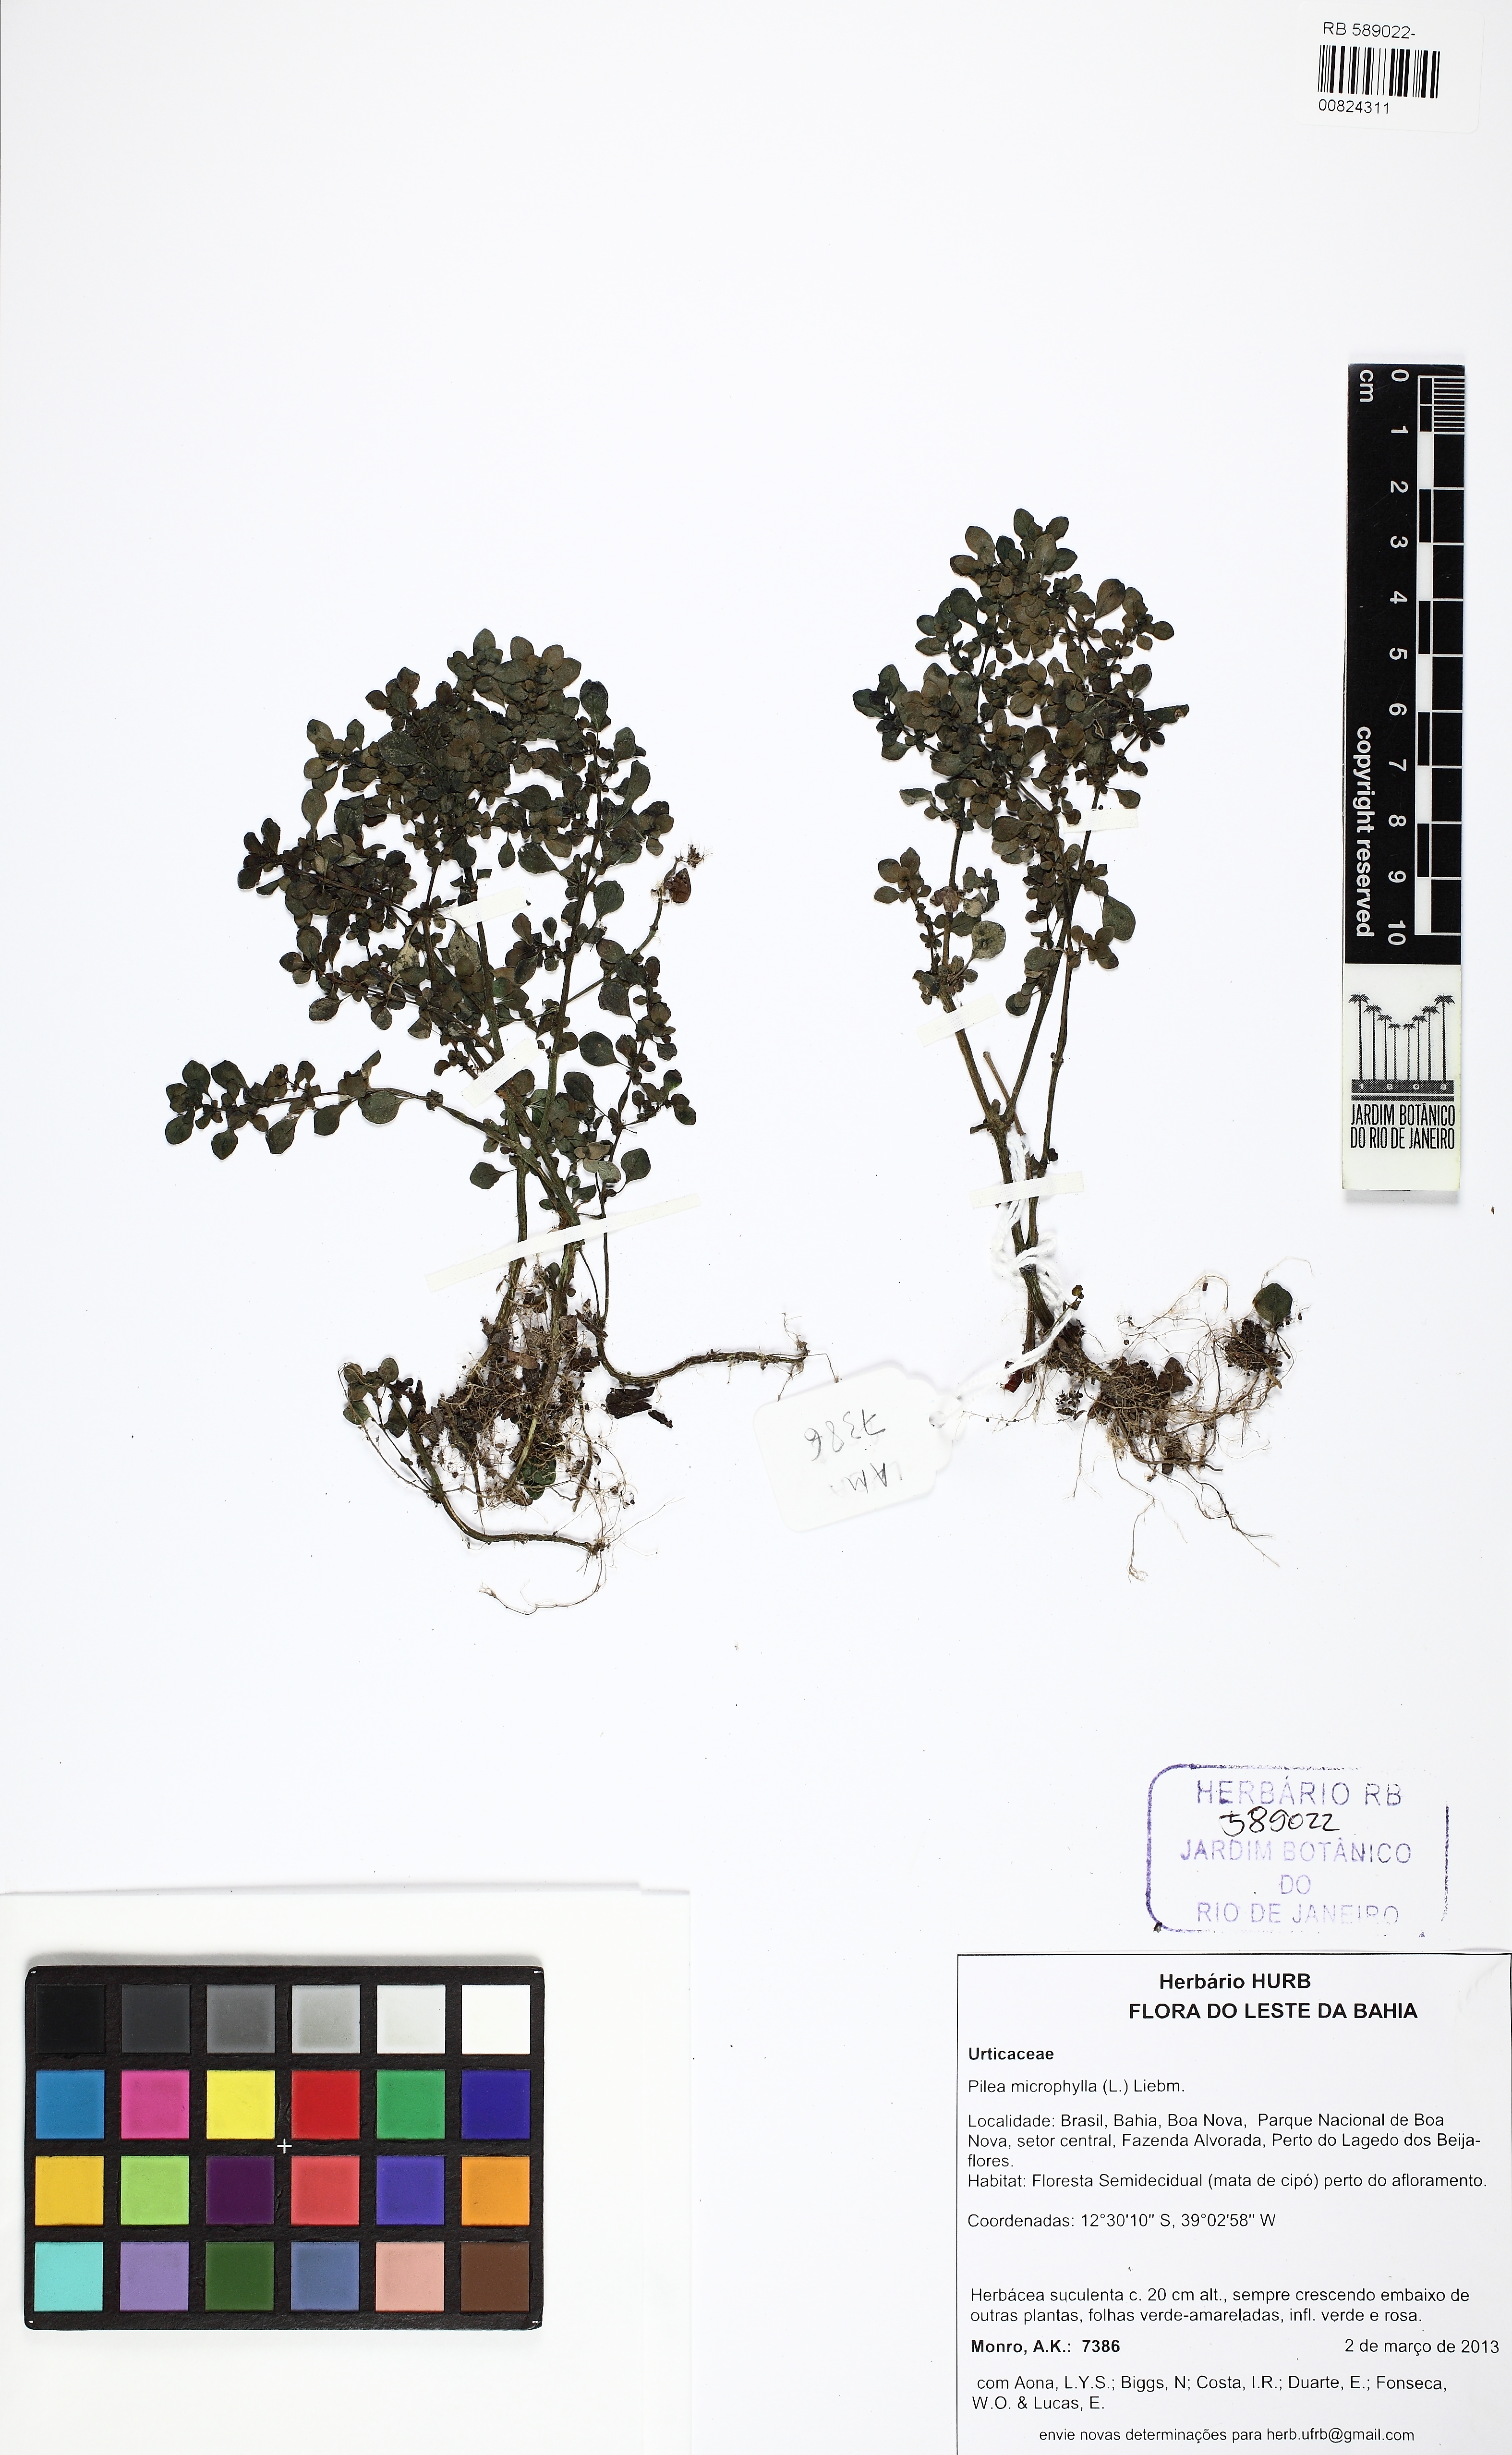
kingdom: Plantae
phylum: Tracheophyta
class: Magnoliopsida
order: Rosales
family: Urticaceae
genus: Pilea
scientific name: Pilea microphylla
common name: Artillery-plant
